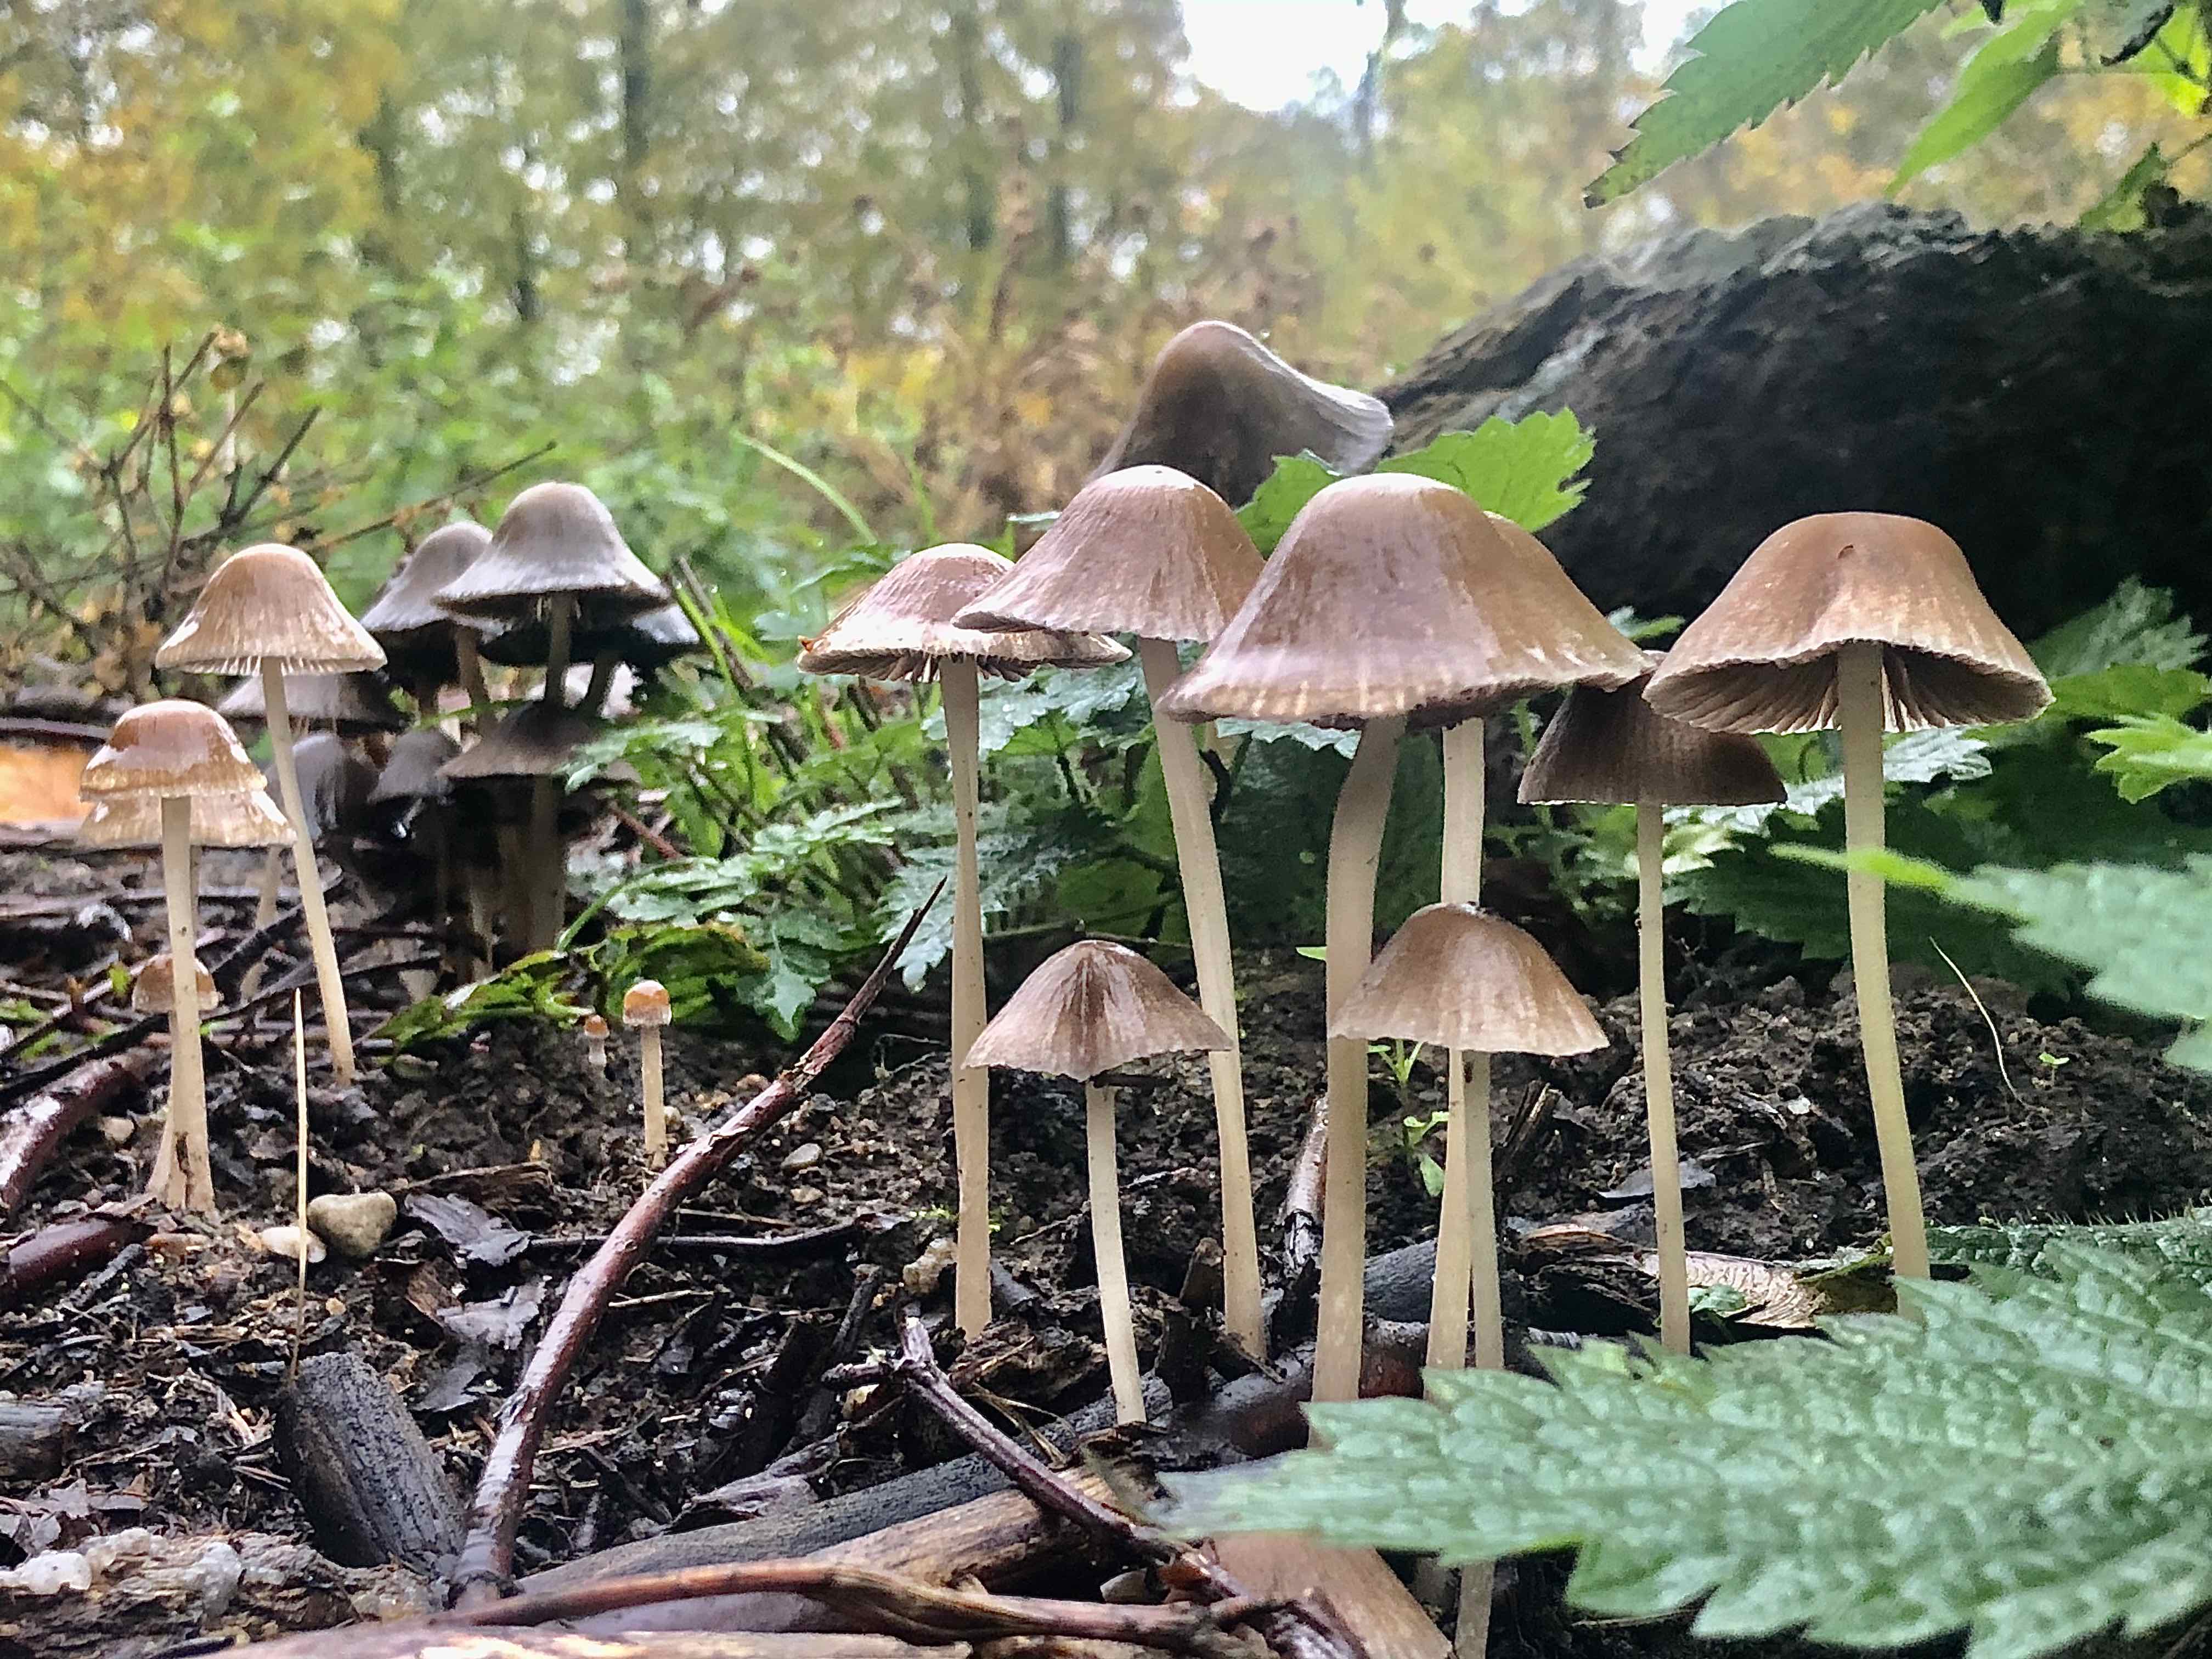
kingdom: Fungi
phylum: Basidiomycota
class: Agaricomycetes
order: Agaricales
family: Psathyrellaceae
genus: Psathyrella
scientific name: Psathyrella
